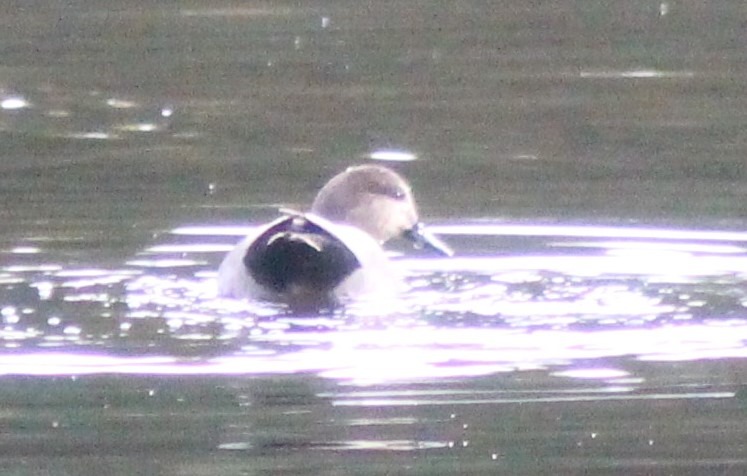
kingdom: Animalia
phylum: Chordata
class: Aves
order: Anseriformes
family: Anatidae
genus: Mareca
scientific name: Mareca strepera
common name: Knarand
